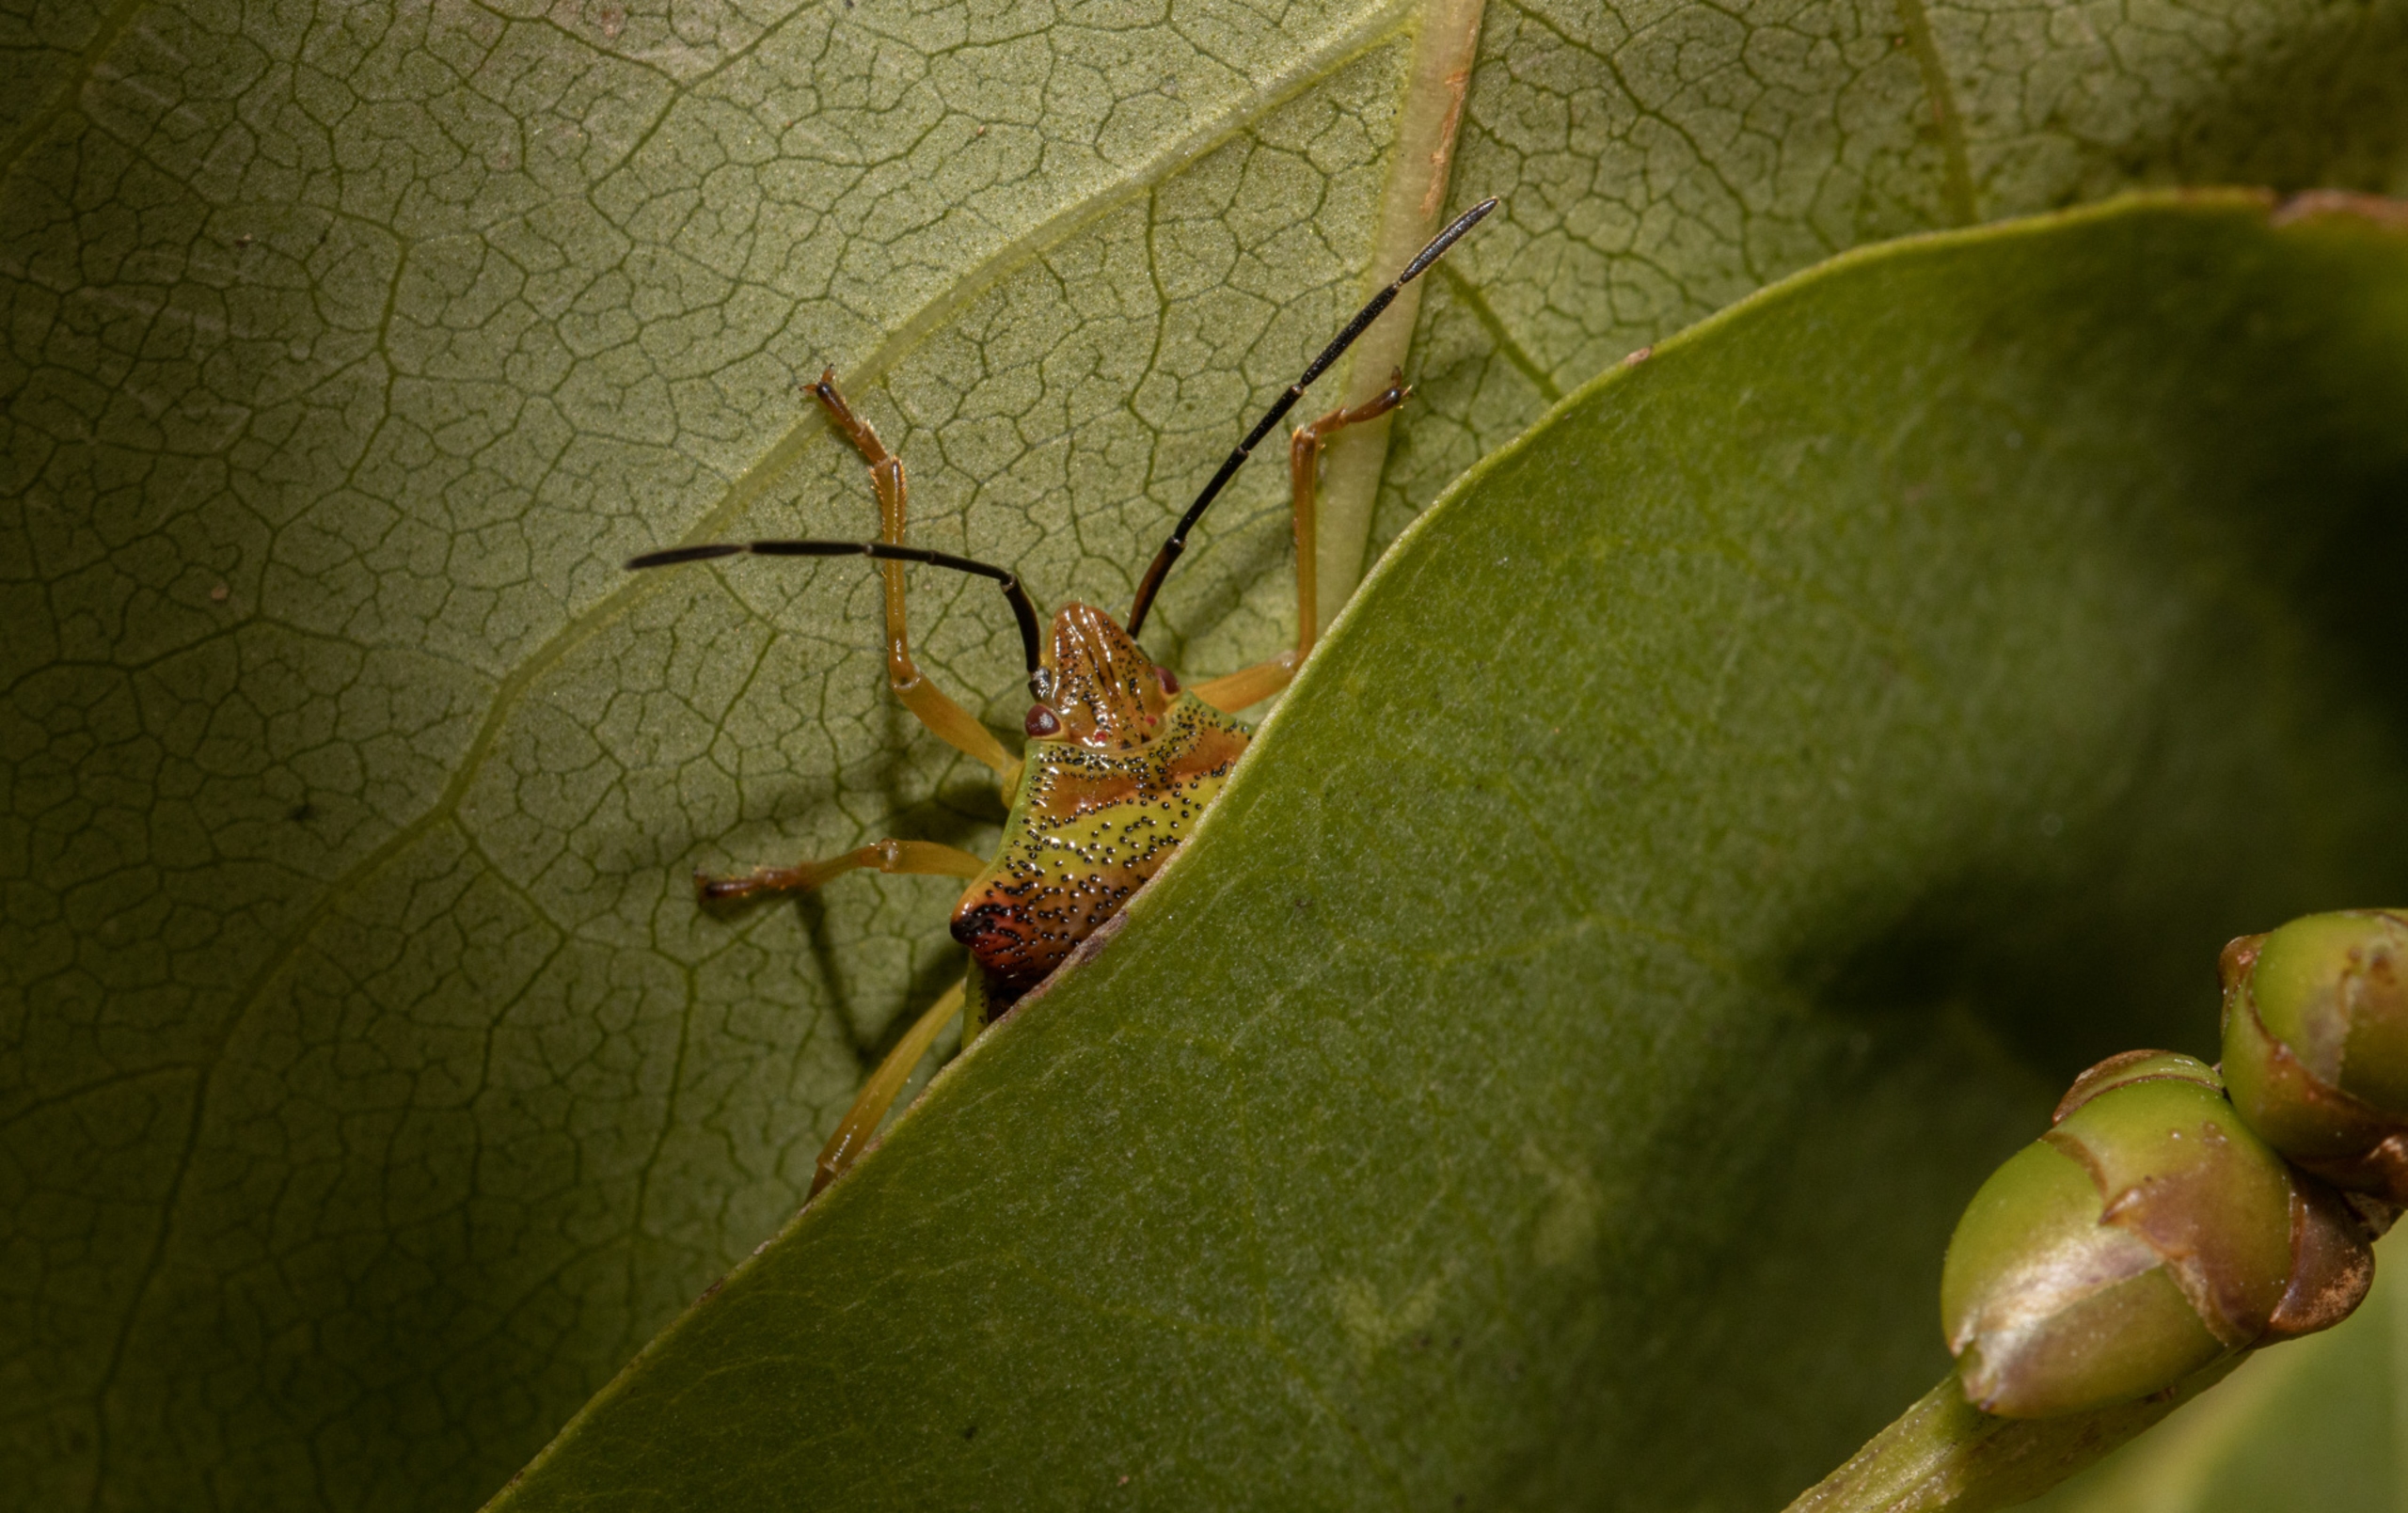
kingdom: Animalia
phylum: Arthropoda
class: Insecta
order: Hemiptera
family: Acanthosomatidae
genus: Acanthosoma
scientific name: Acanthosoma haemorrhoidale
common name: Stor løvtæge
